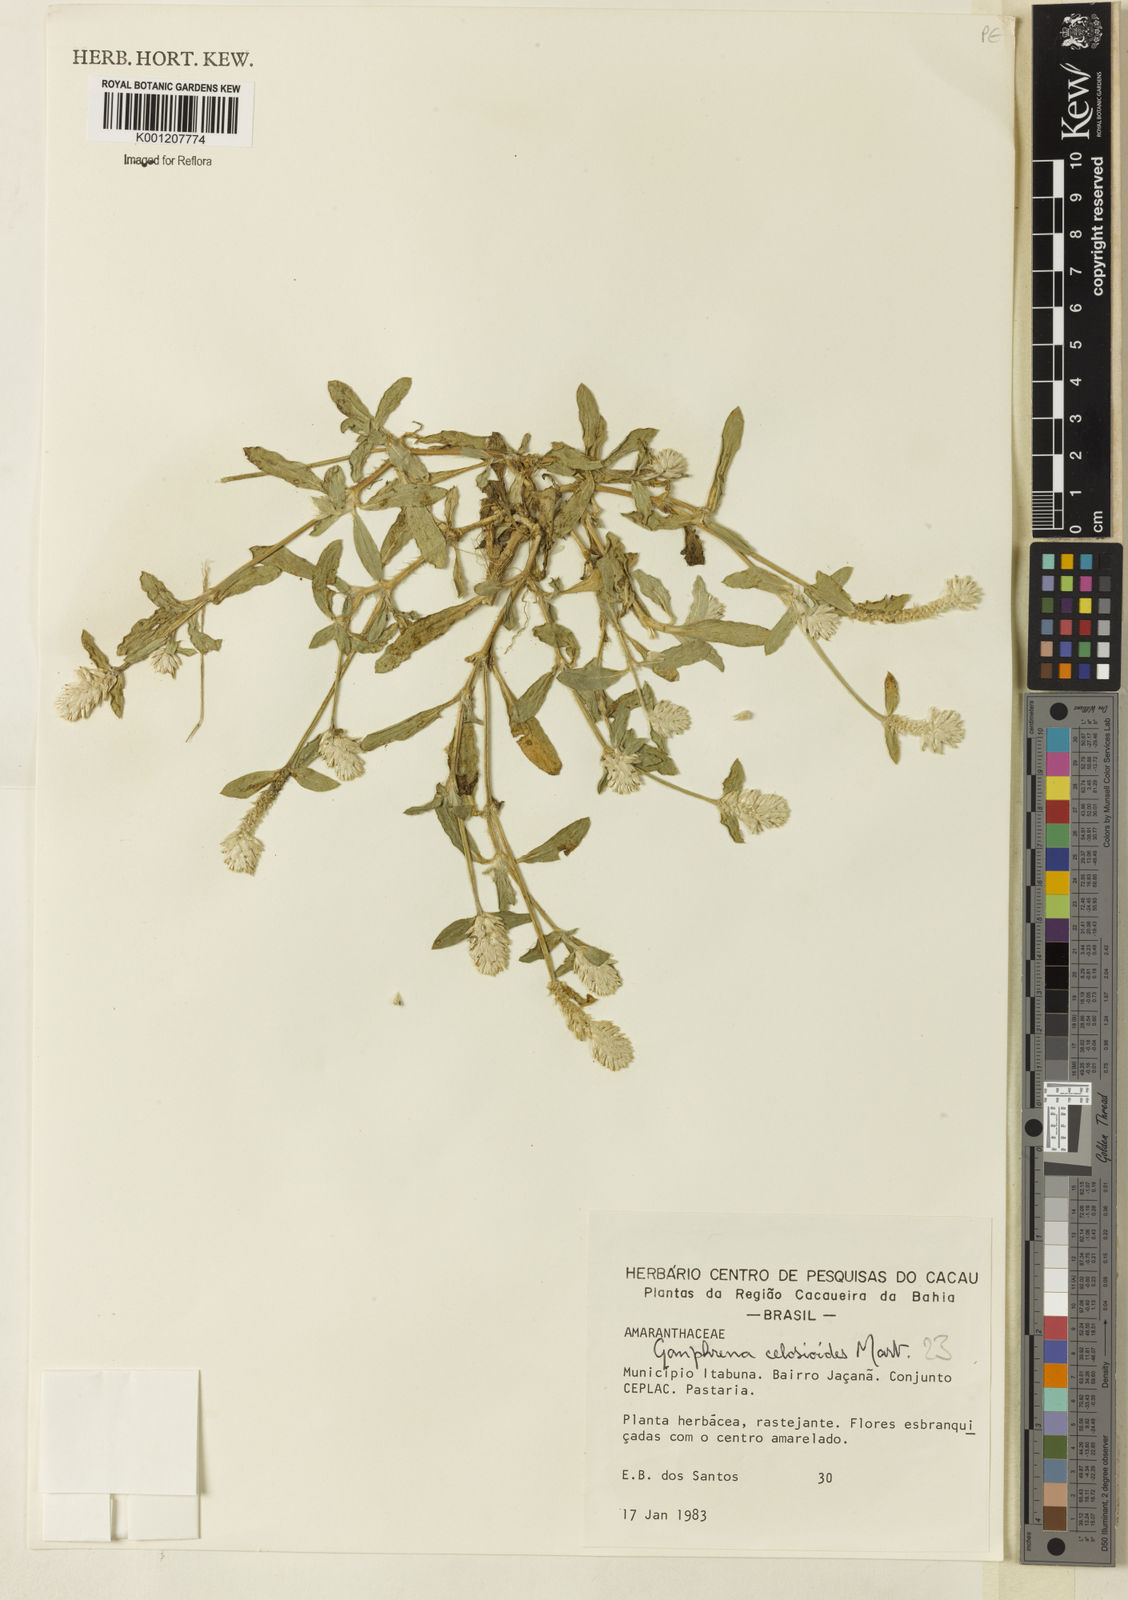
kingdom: Plantae
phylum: Tracheophyta
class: Magnoliopsida
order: Caryophyllales
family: Amaranthaceae
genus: Gomphrena
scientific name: Gomphrena celosioides
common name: Gomphrena-weed
